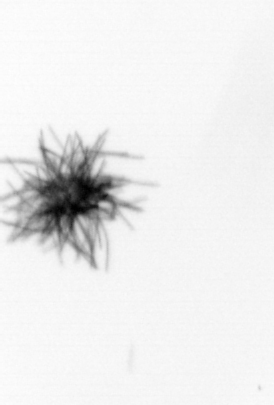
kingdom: Bacteria
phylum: Cyanobacteria
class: Cyanobacteriia
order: Cyanobacteriales
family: Microcoleaceae
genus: Trichodesmium
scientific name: Trichodesmium
